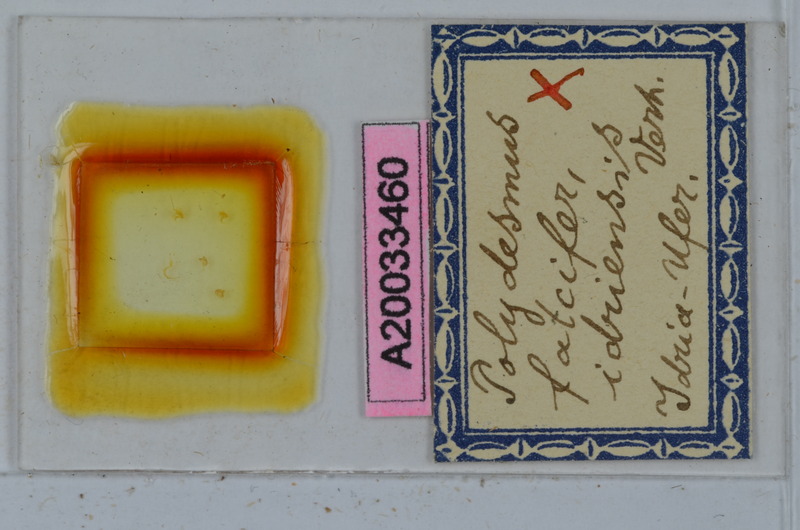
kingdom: Animalia
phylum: Arthropoda
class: Diplopoda
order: Polydesmida
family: Polydesmidae
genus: Polydesmus
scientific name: Polydesmus falcifer
